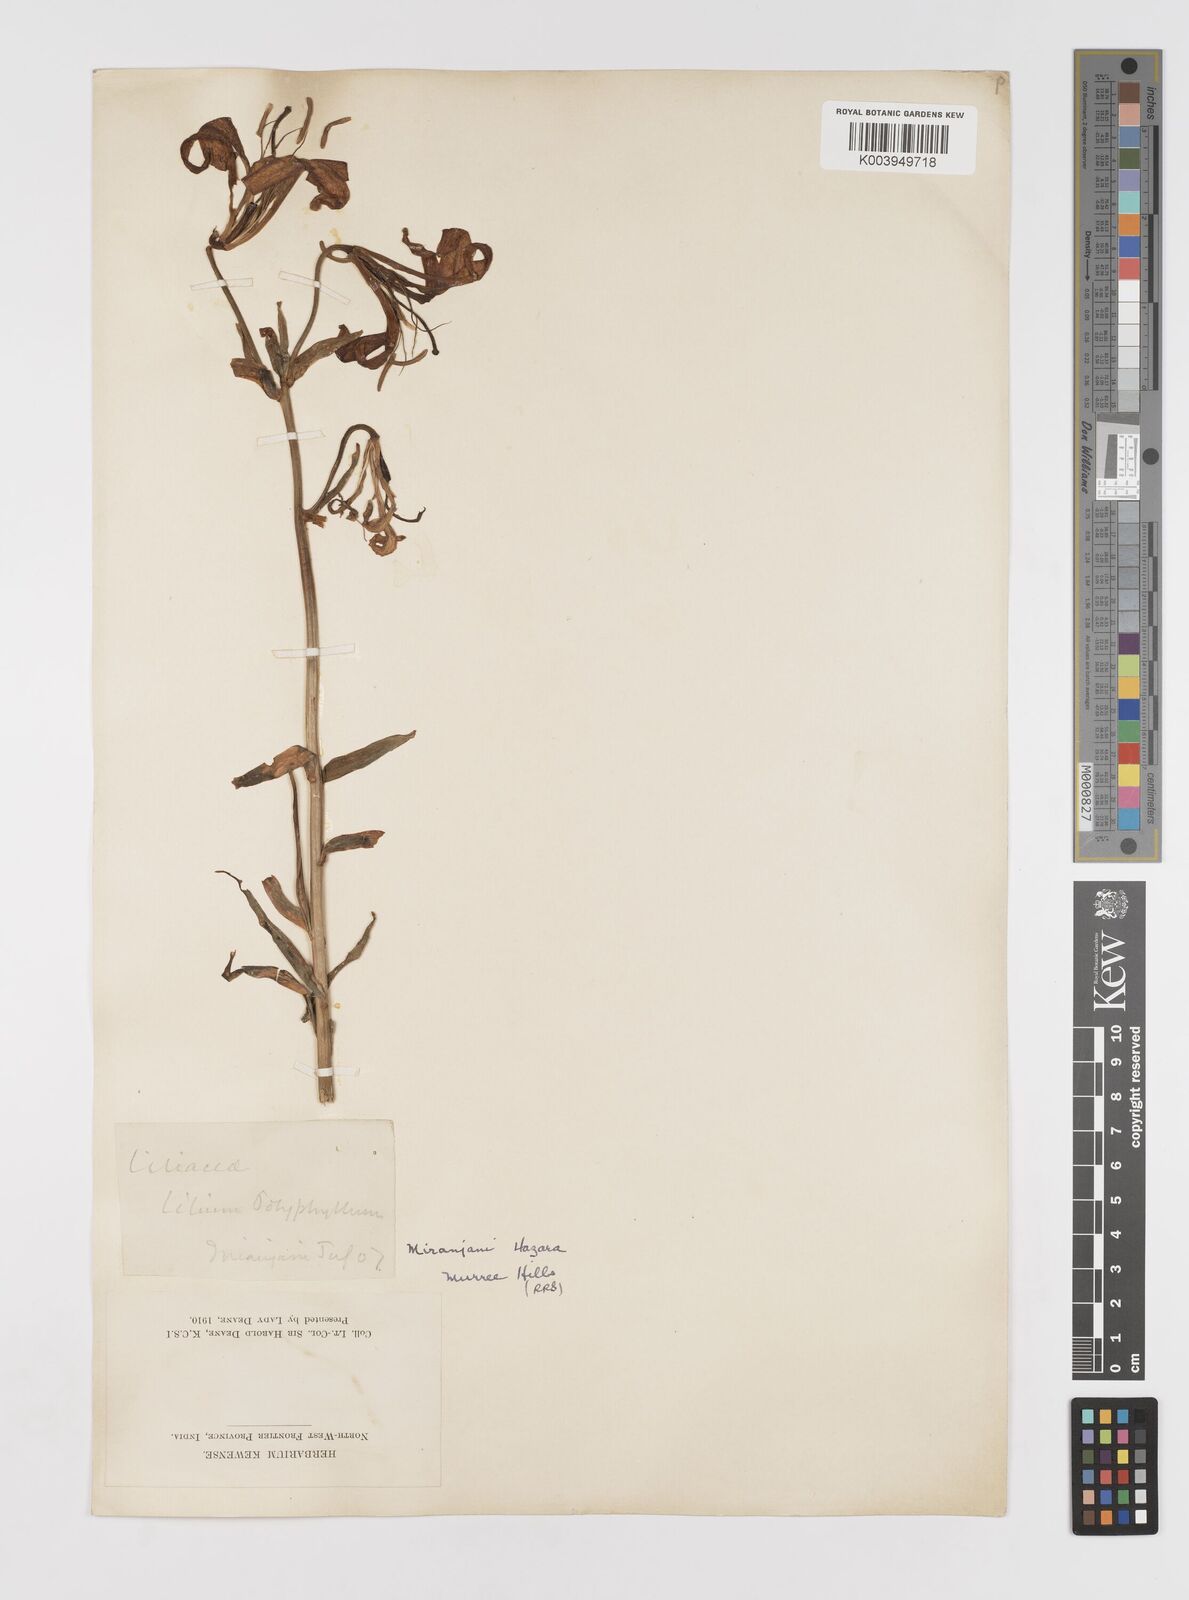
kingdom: Plantae
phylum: Tracheophyta
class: Liliopsida
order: Liliales
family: Liliaceae
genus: Lilium
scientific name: Lilium polyphyllum
